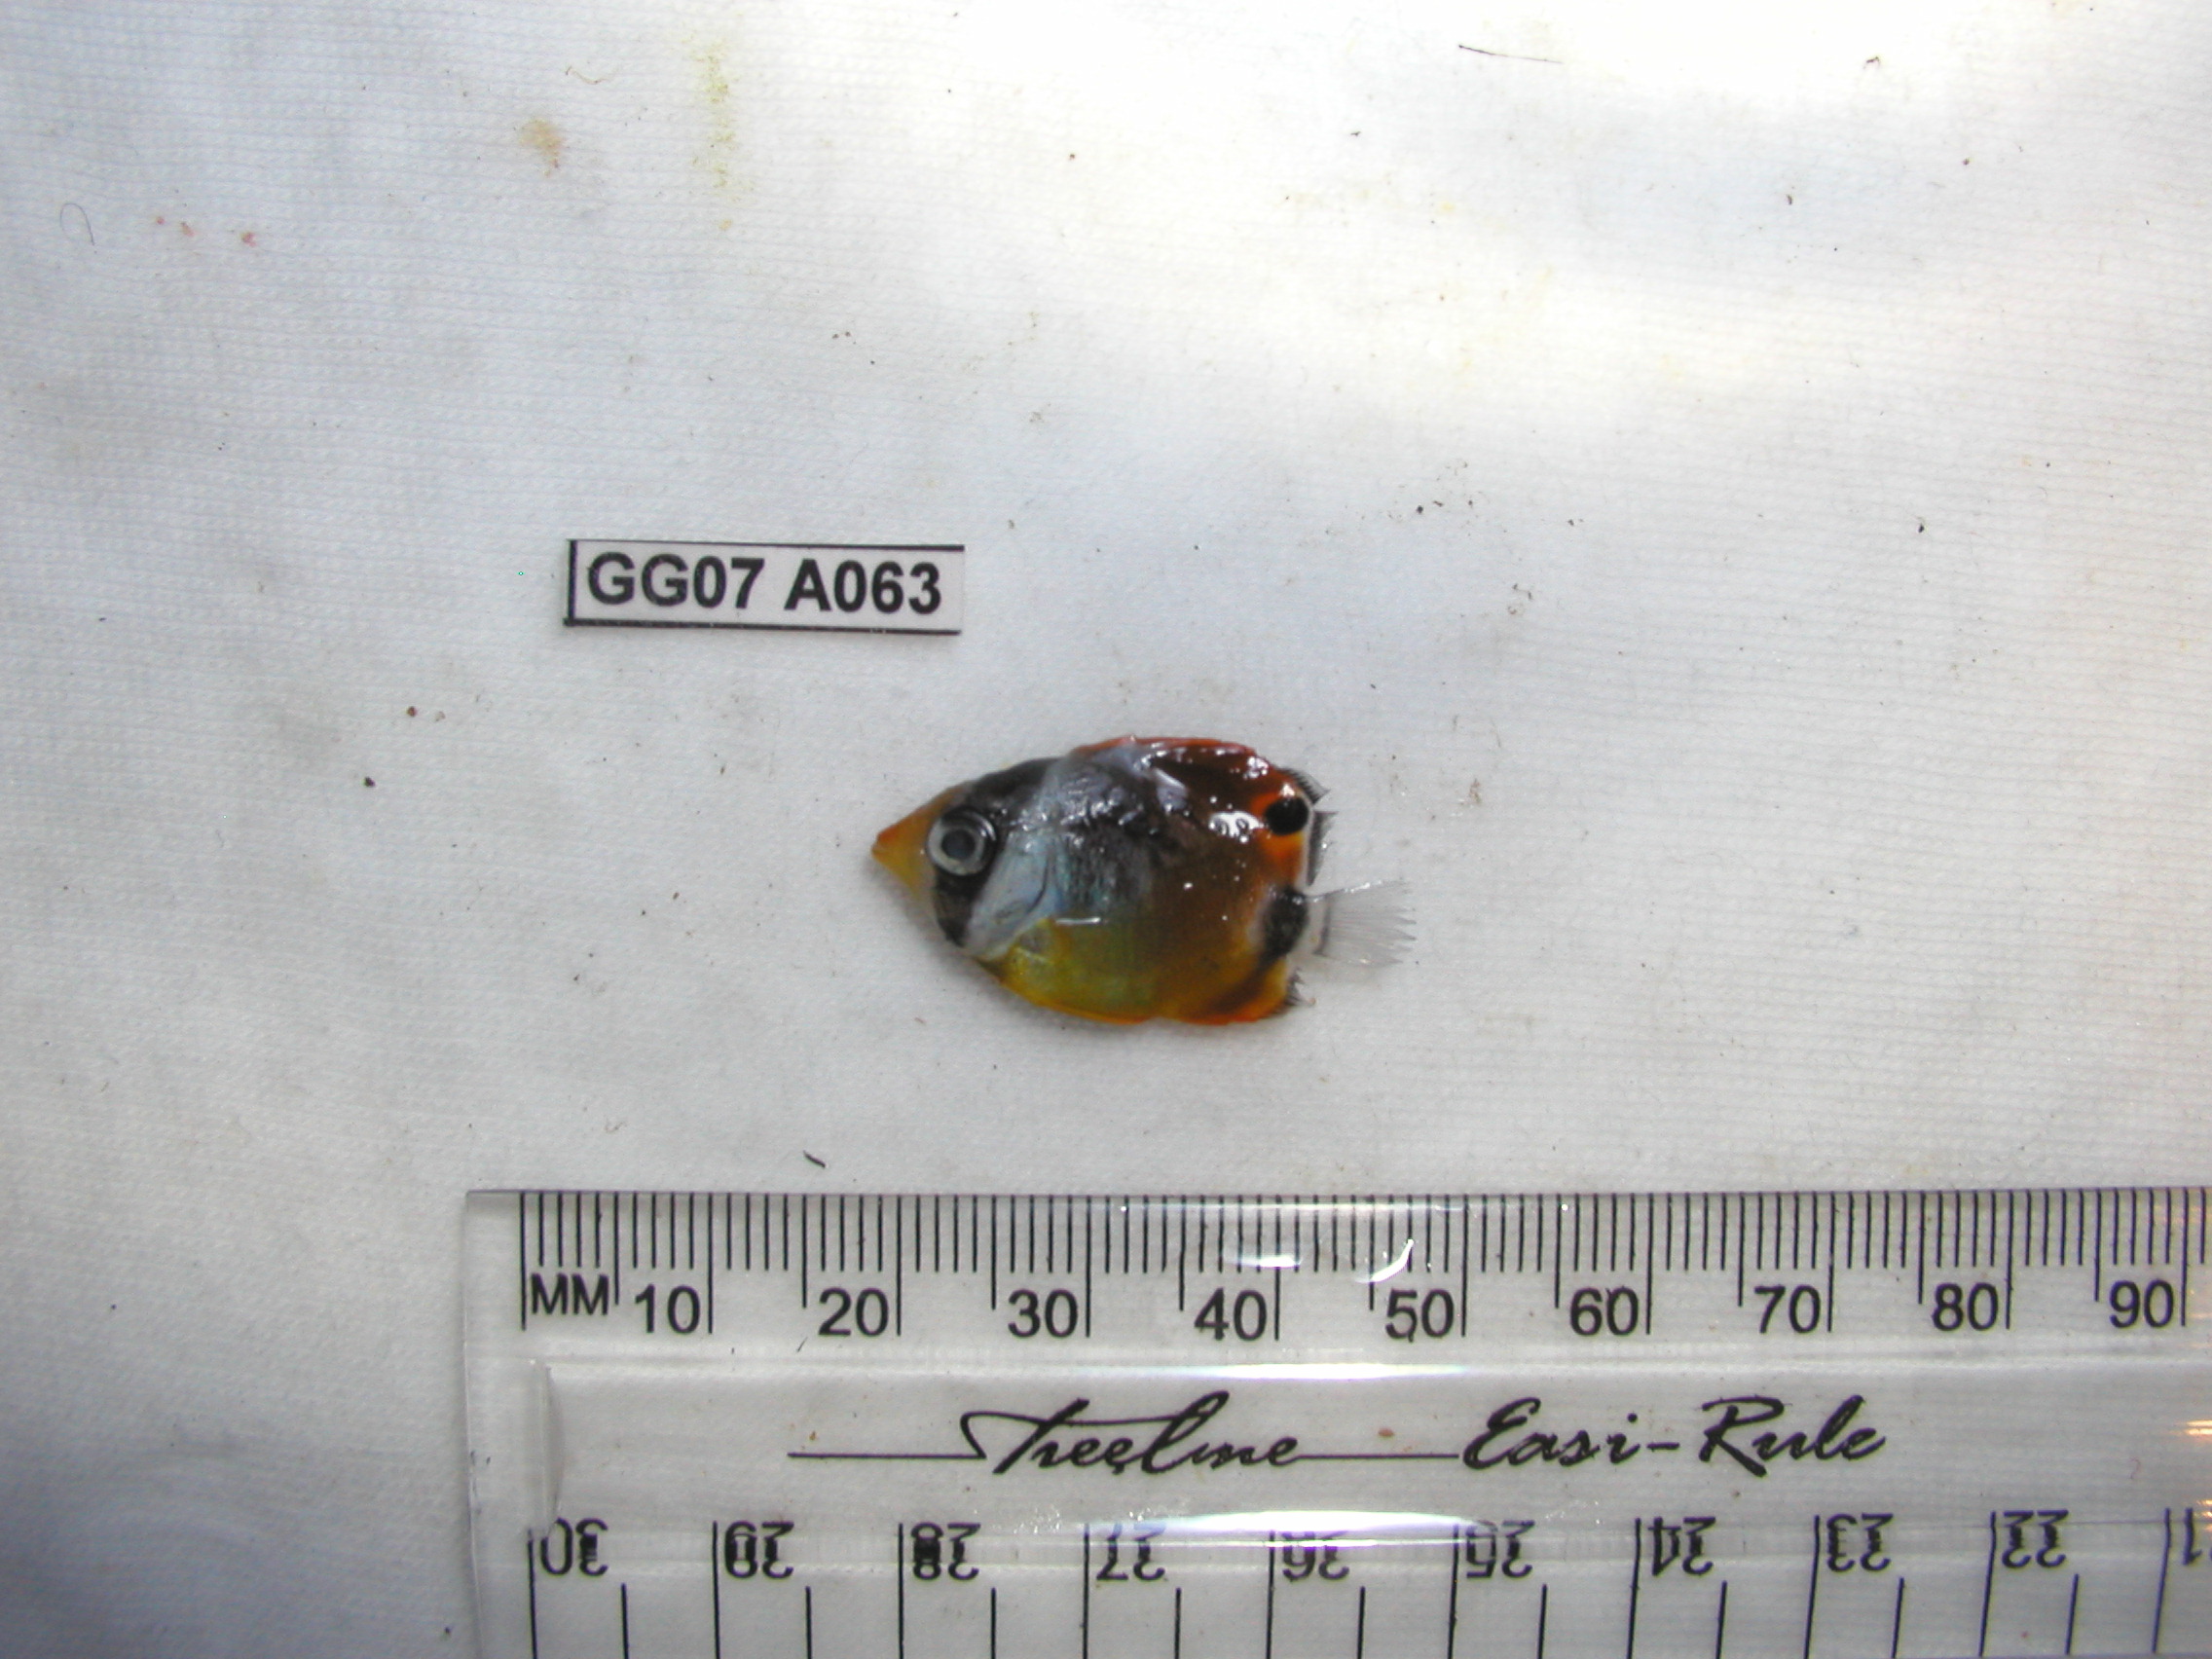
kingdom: Animalia
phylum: Chordata
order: Perciformes
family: Chaetodontidae
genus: Chaetodon
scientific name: Chaetodon lunula
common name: Raccoon butterflyfish
